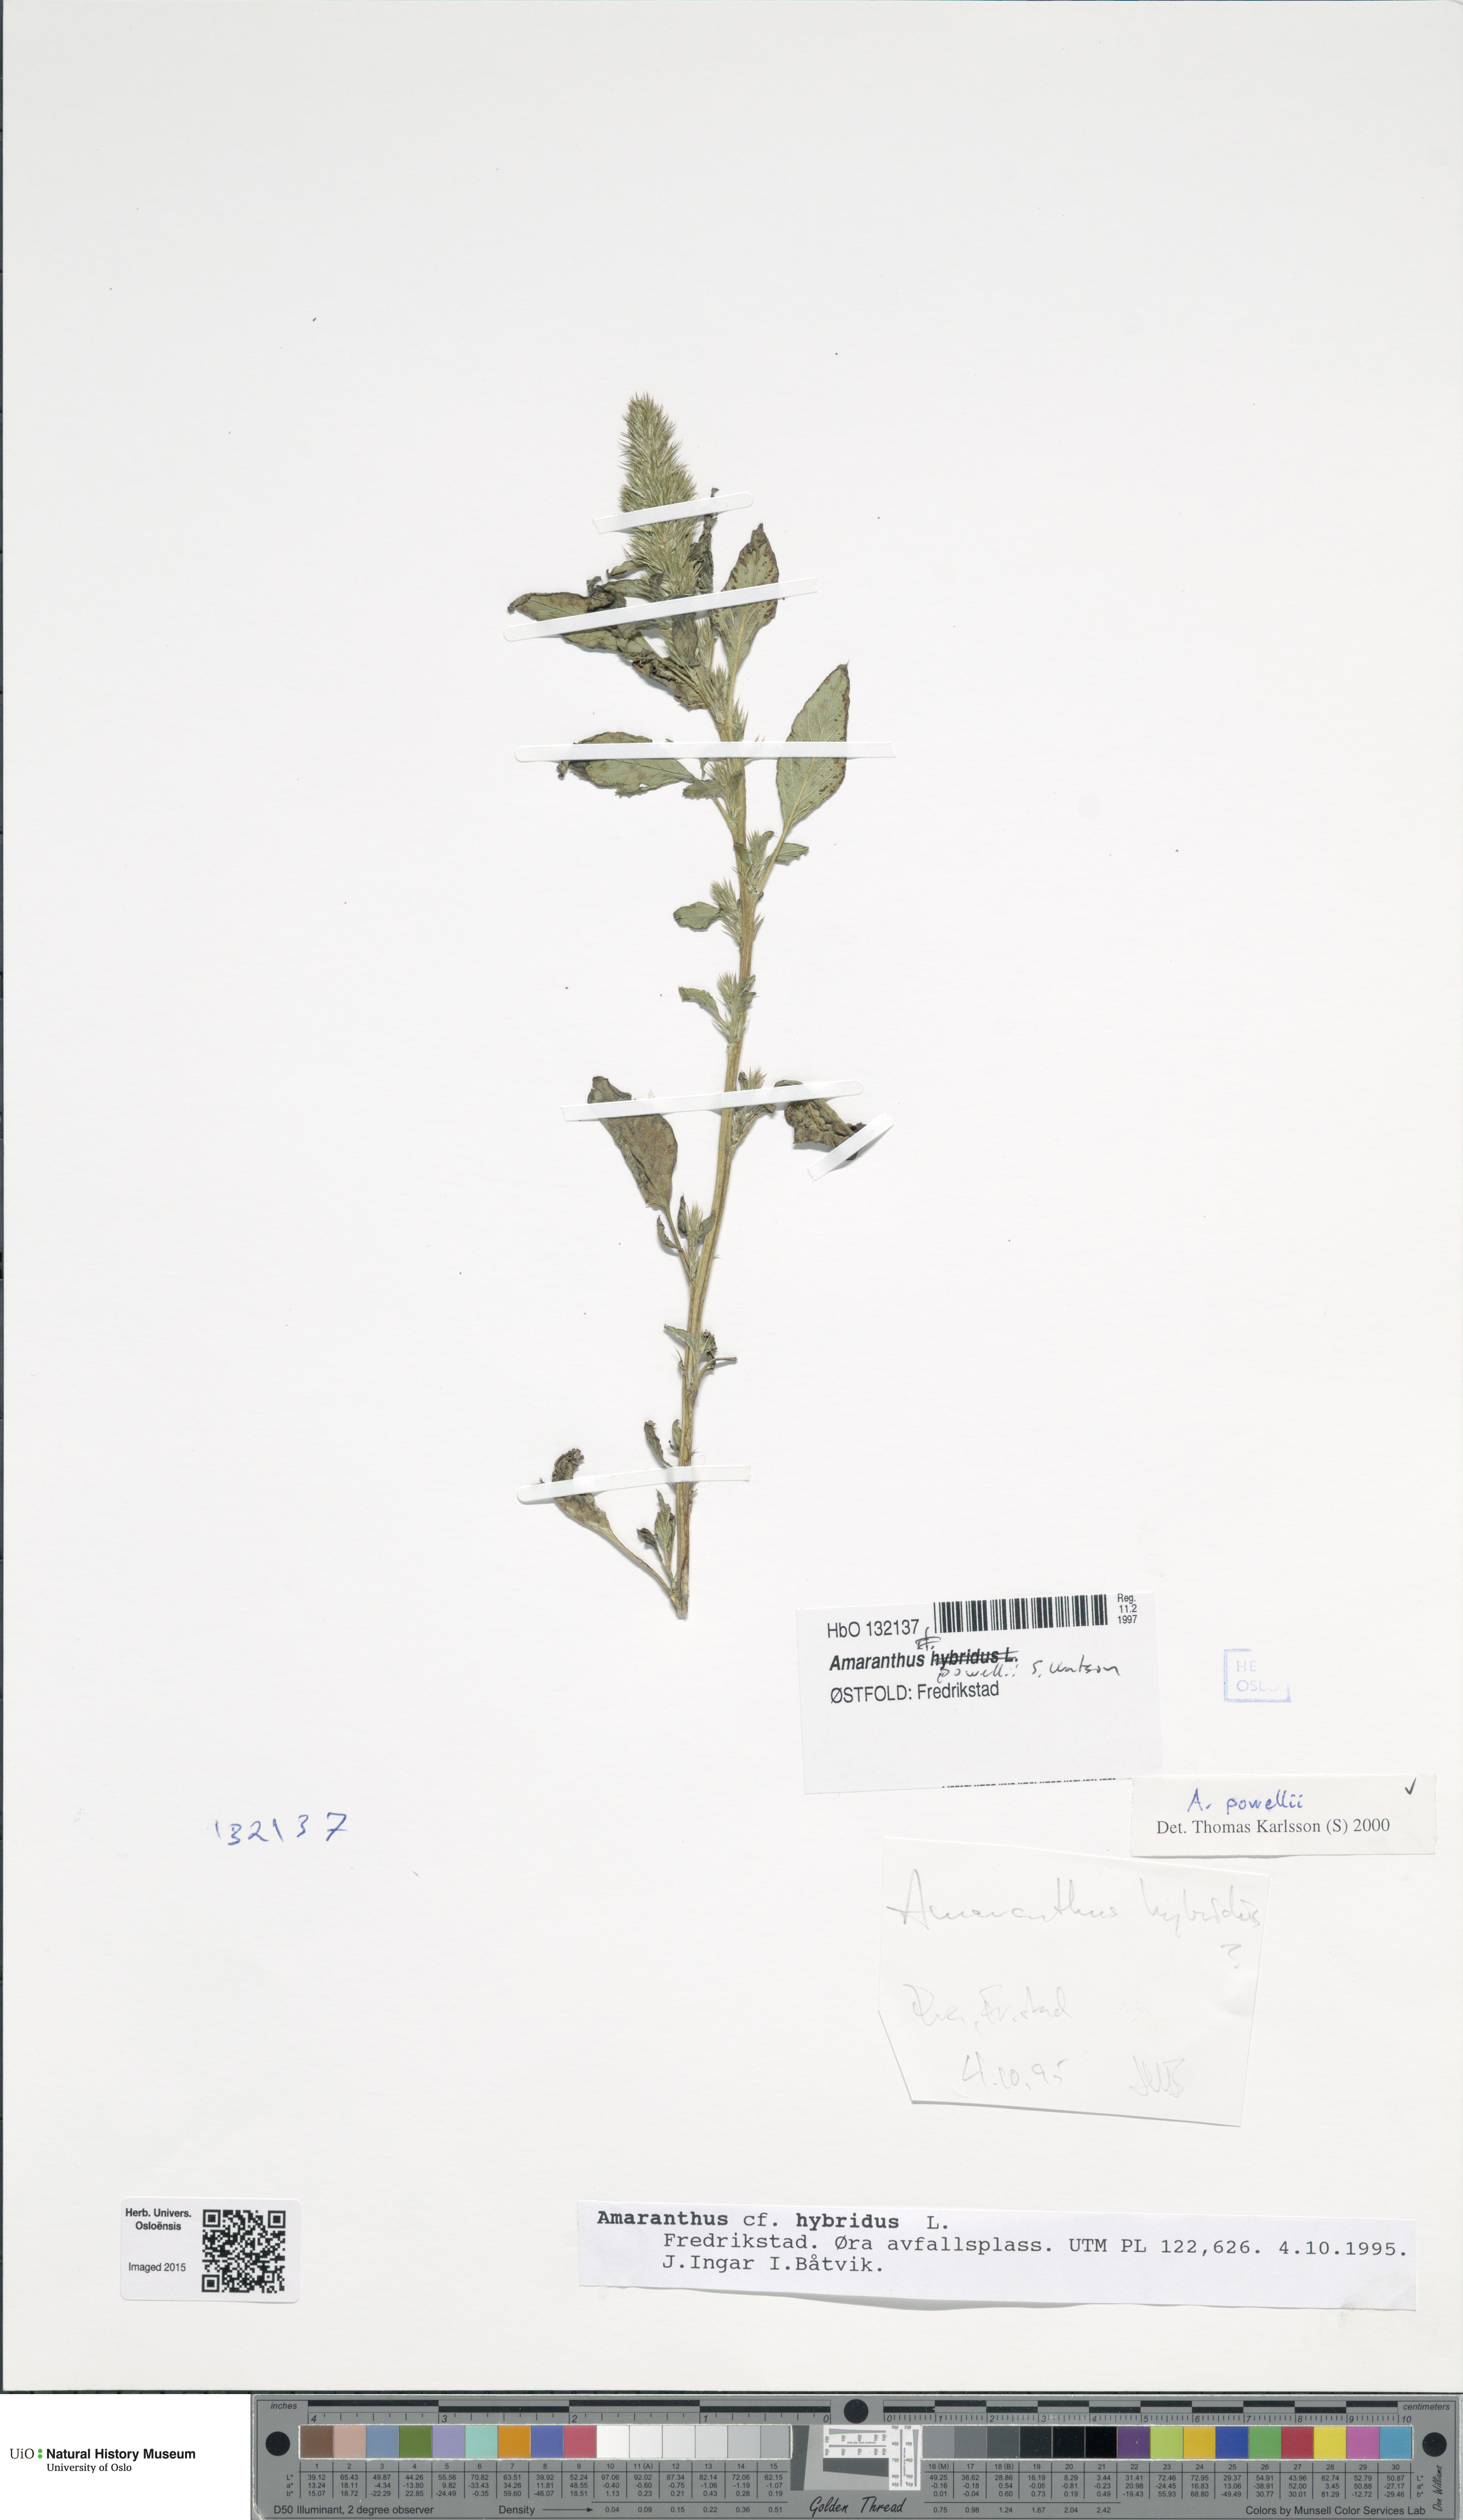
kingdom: Plantae
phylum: Tracheophyta
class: Magnoliopsida
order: Caryophyllales
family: Amaranthaceae
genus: Amaranthus
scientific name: Amaranthus powellii
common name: Powell's amaranth
